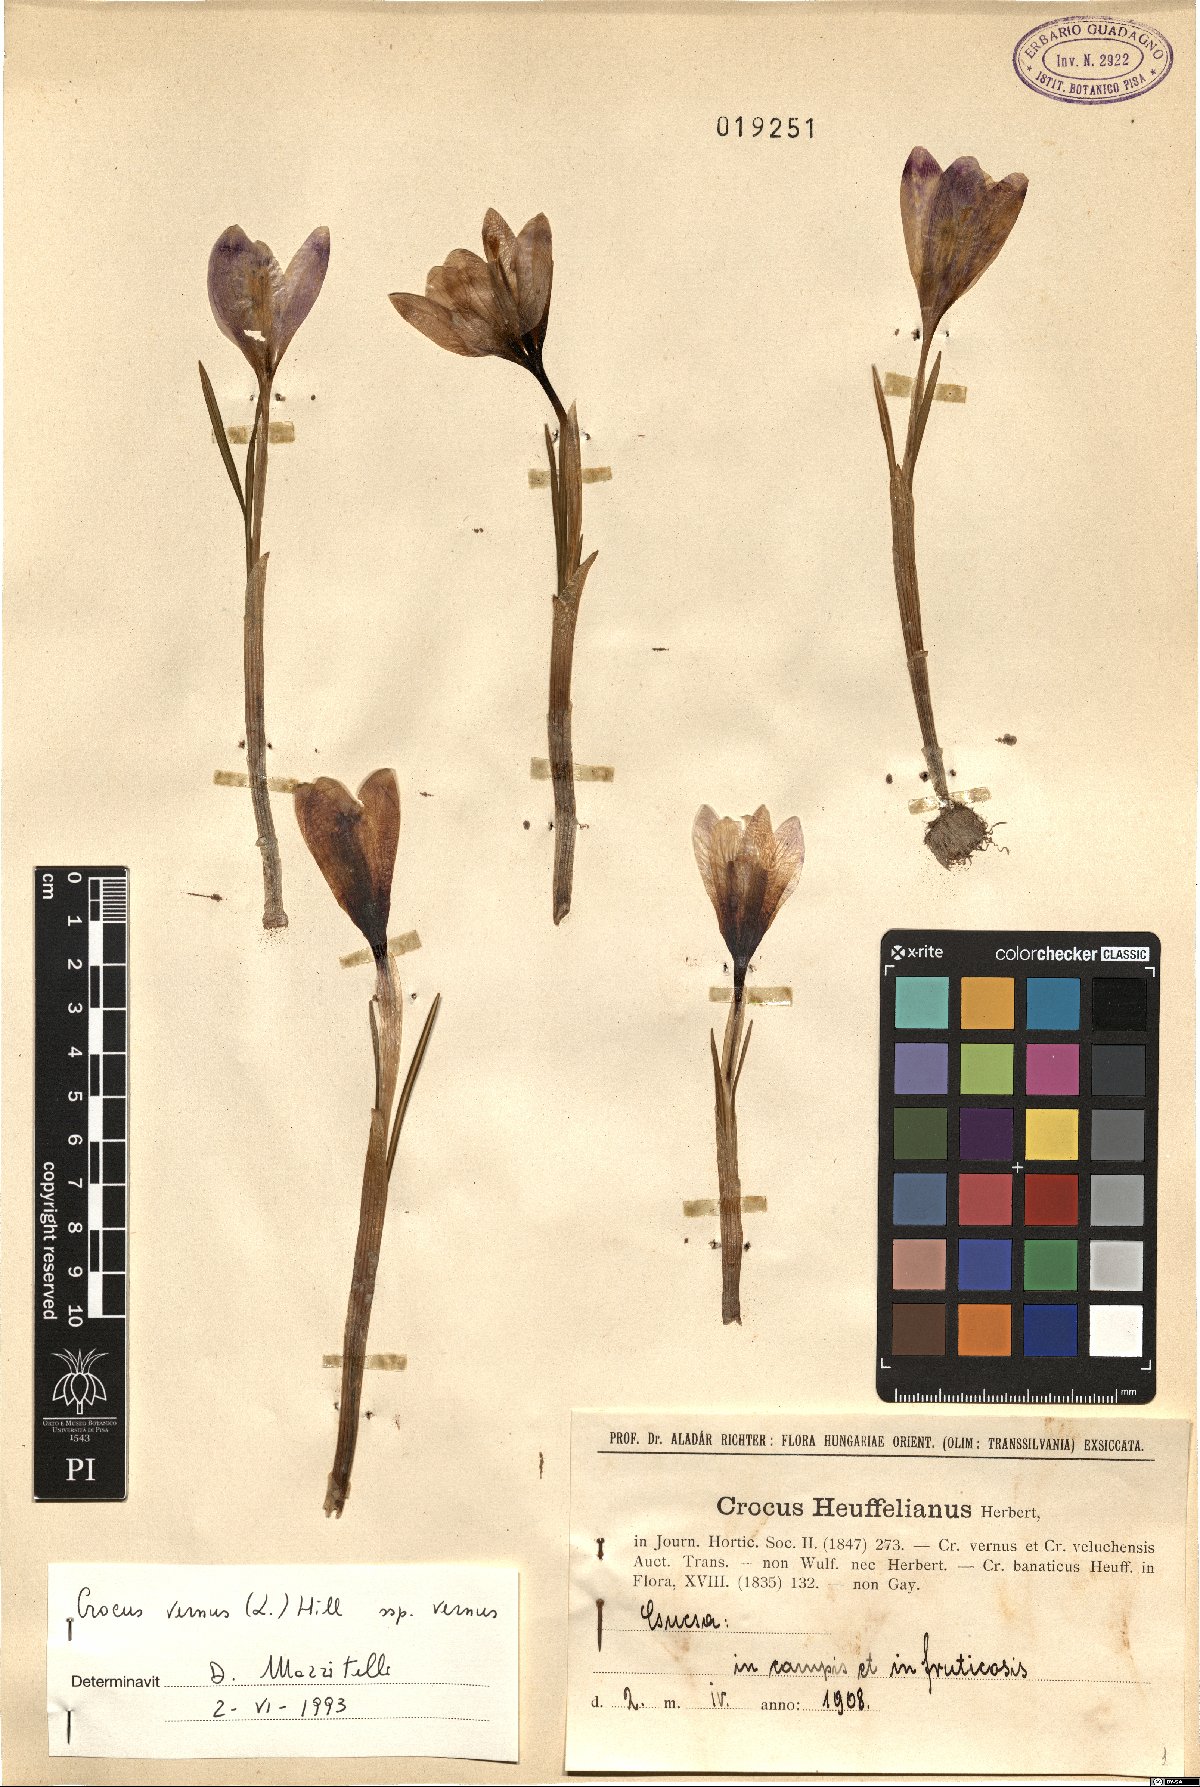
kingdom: Plantae
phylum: Tracheophyta
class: Liliopsida
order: Asparagales
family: Iridaceae
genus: Crocus
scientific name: Crocus vernus
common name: Spring crocus
